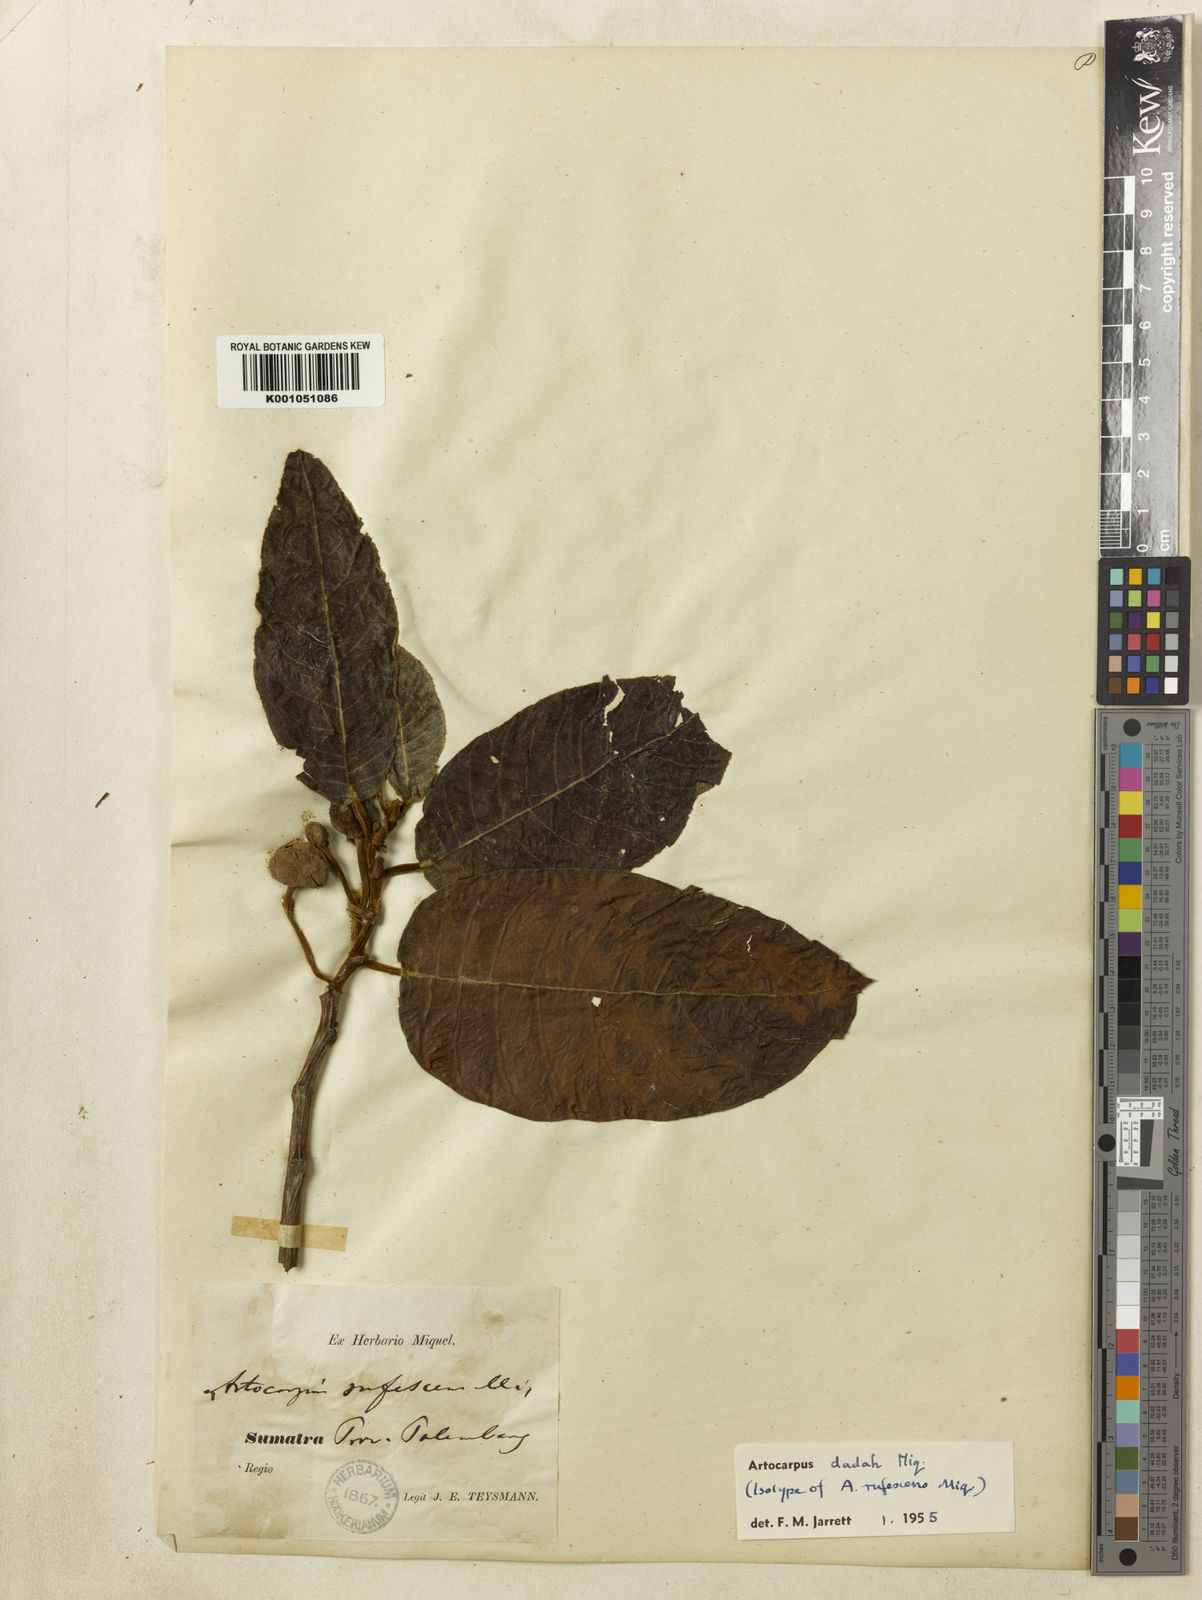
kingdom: Plantae
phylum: Tracheophyta
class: Magnoliopsida
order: Rosales
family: Moraceae
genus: Artocarpus
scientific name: Artocarpus lacucha
